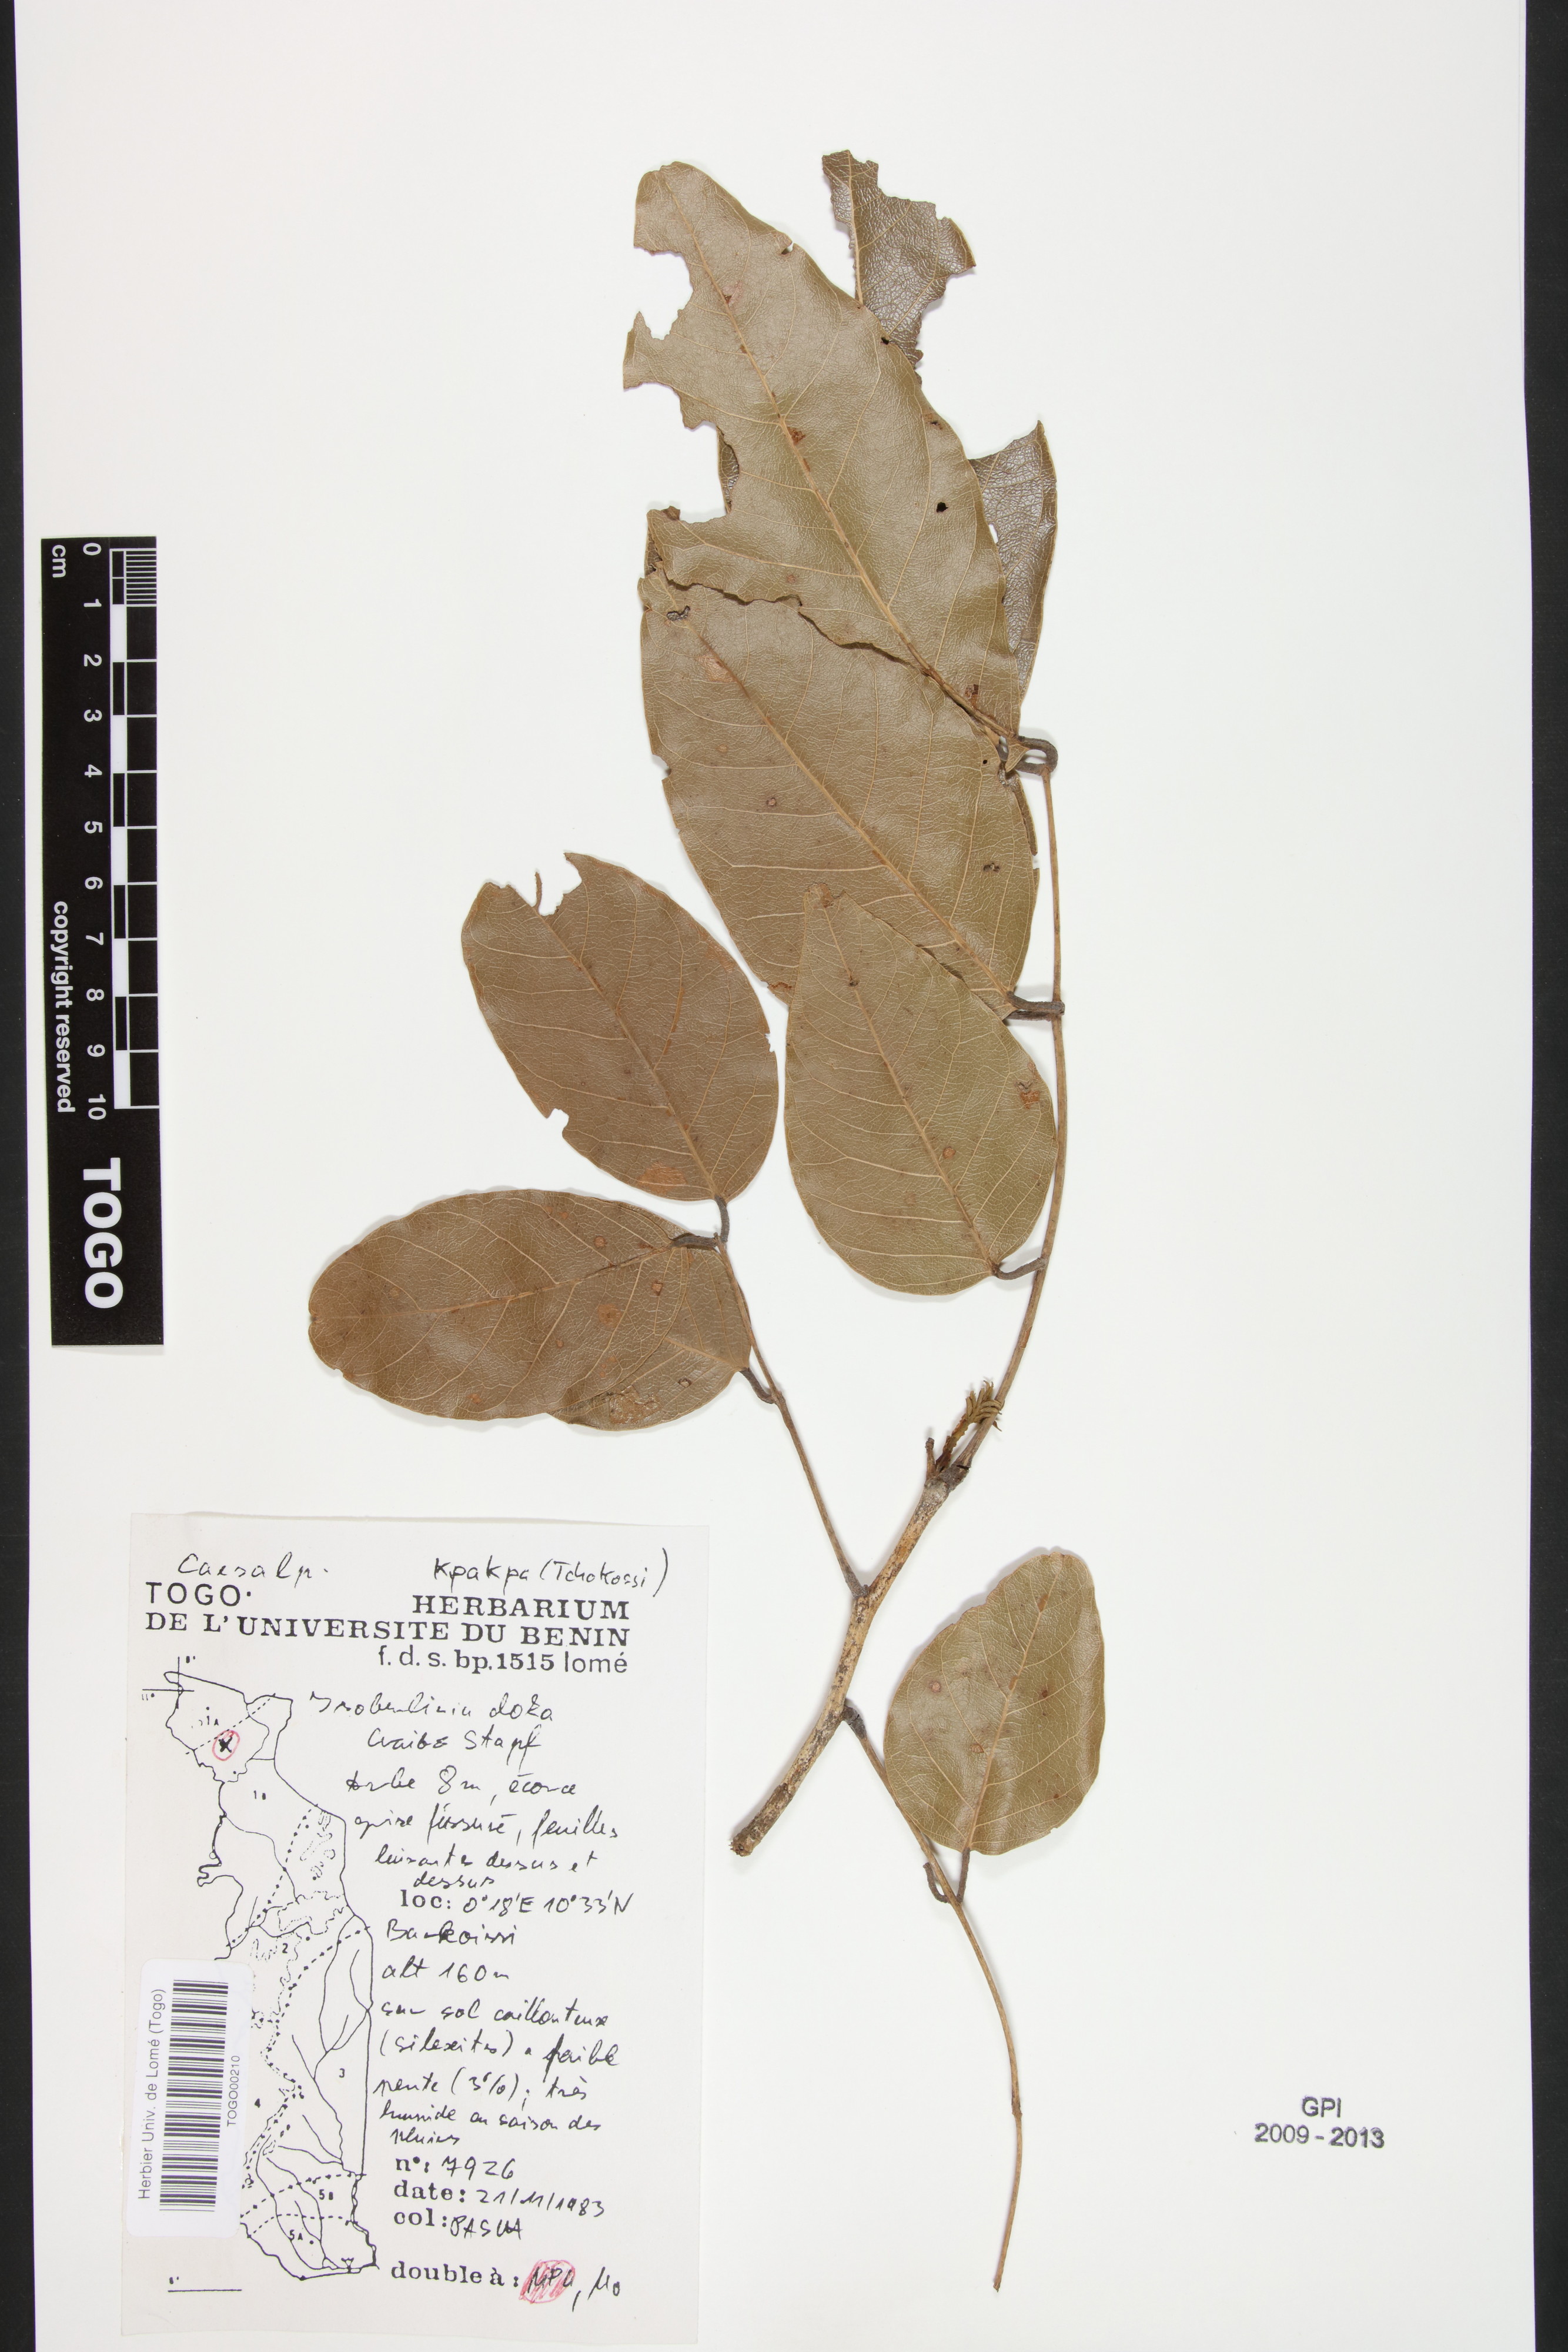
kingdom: Plantae
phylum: Tracheophyta
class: Magnoliopsida
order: Fabales
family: Fabaceae
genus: Isoberlinia
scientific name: Isoberlinia doka
